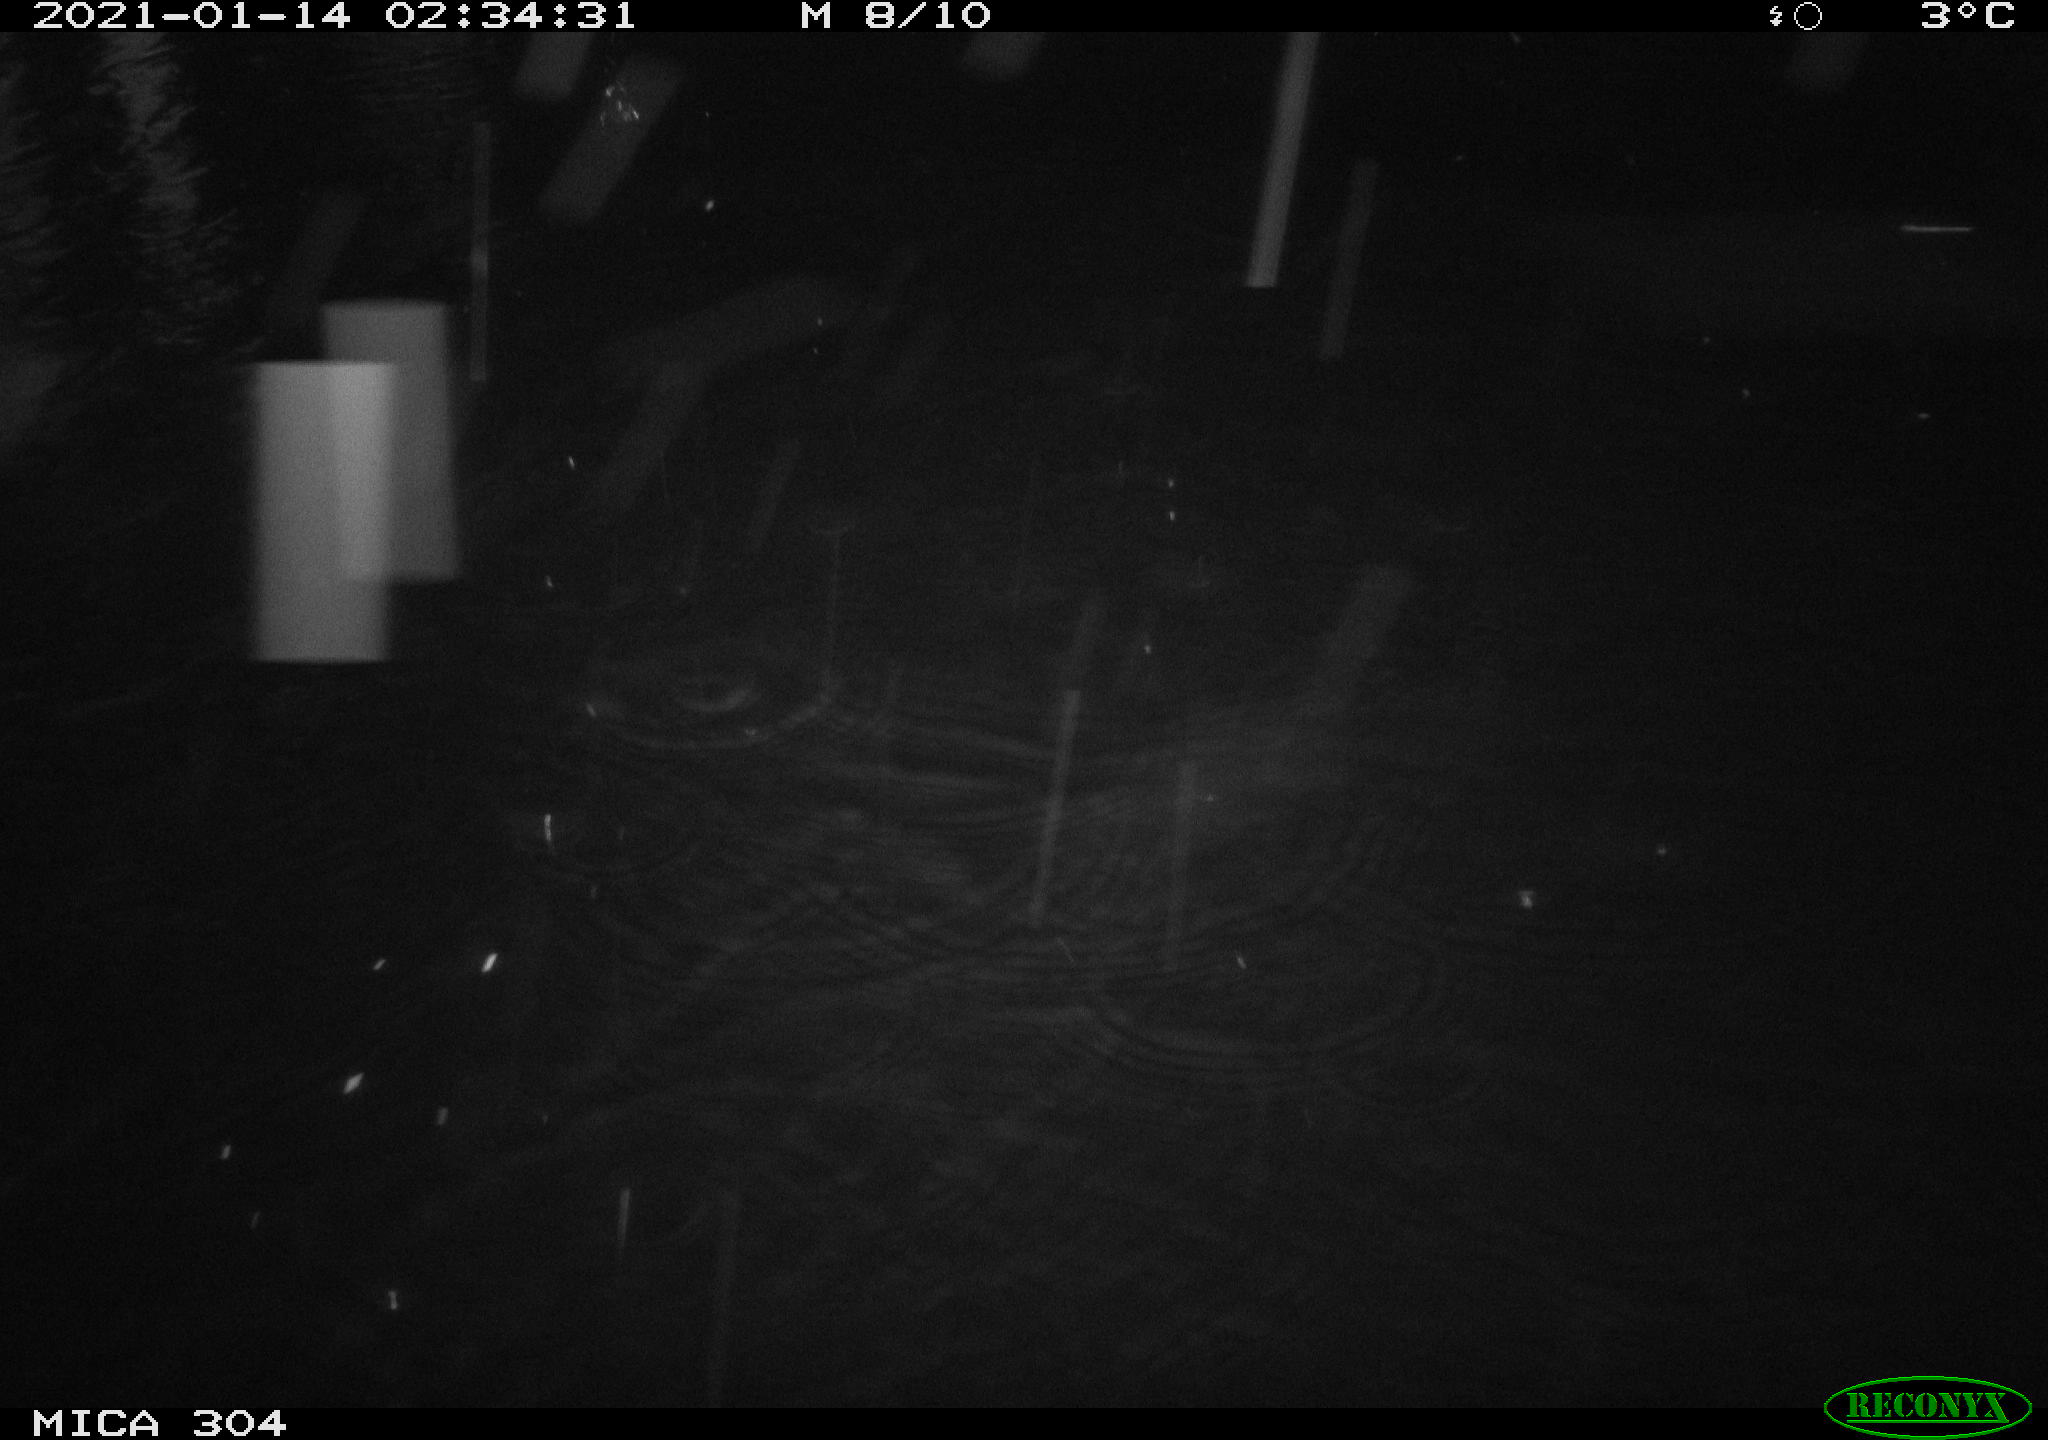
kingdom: Animalia
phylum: Chordata
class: Mammalia
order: Rodentia
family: Muridae
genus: Rattus
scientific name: Rattus norvegicus
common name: Brown rat
